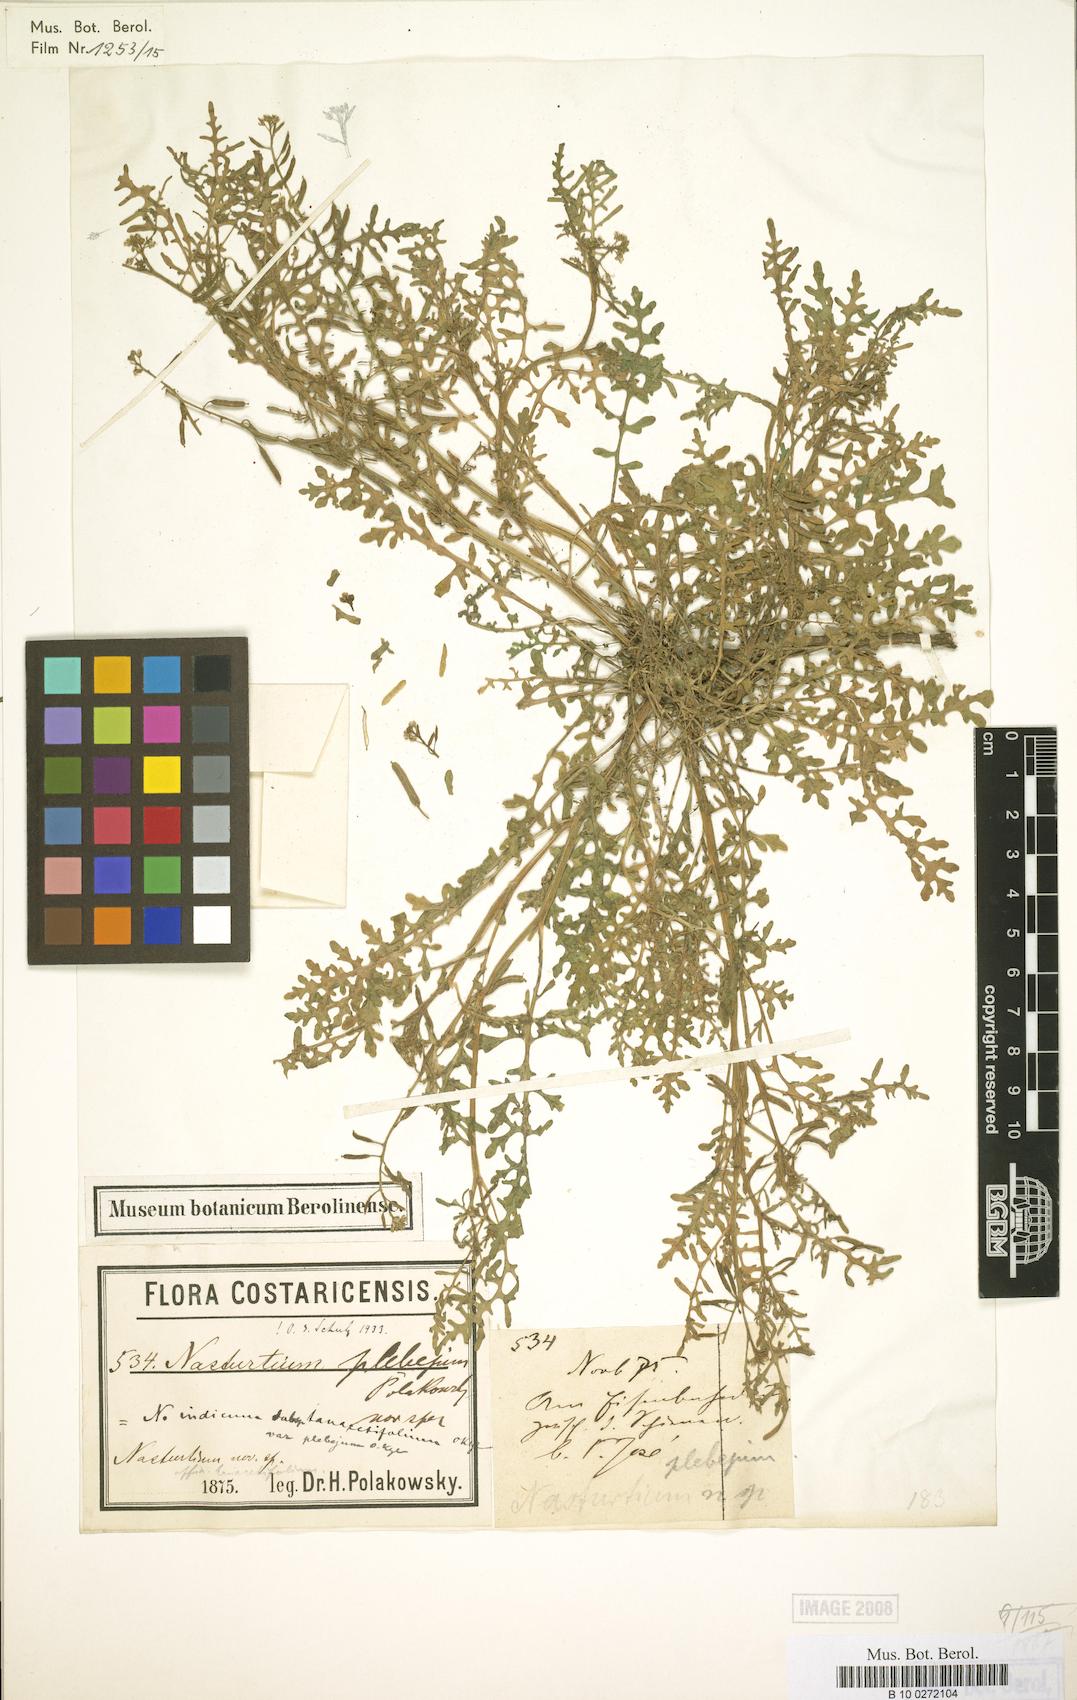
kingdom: Plantae
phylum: Tracheophyta
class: Magnoliopsida
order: Brassicales
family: Brassicaceae
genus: Rorippa
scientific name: Rorippa teres
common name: Southern marsh yellowcress
